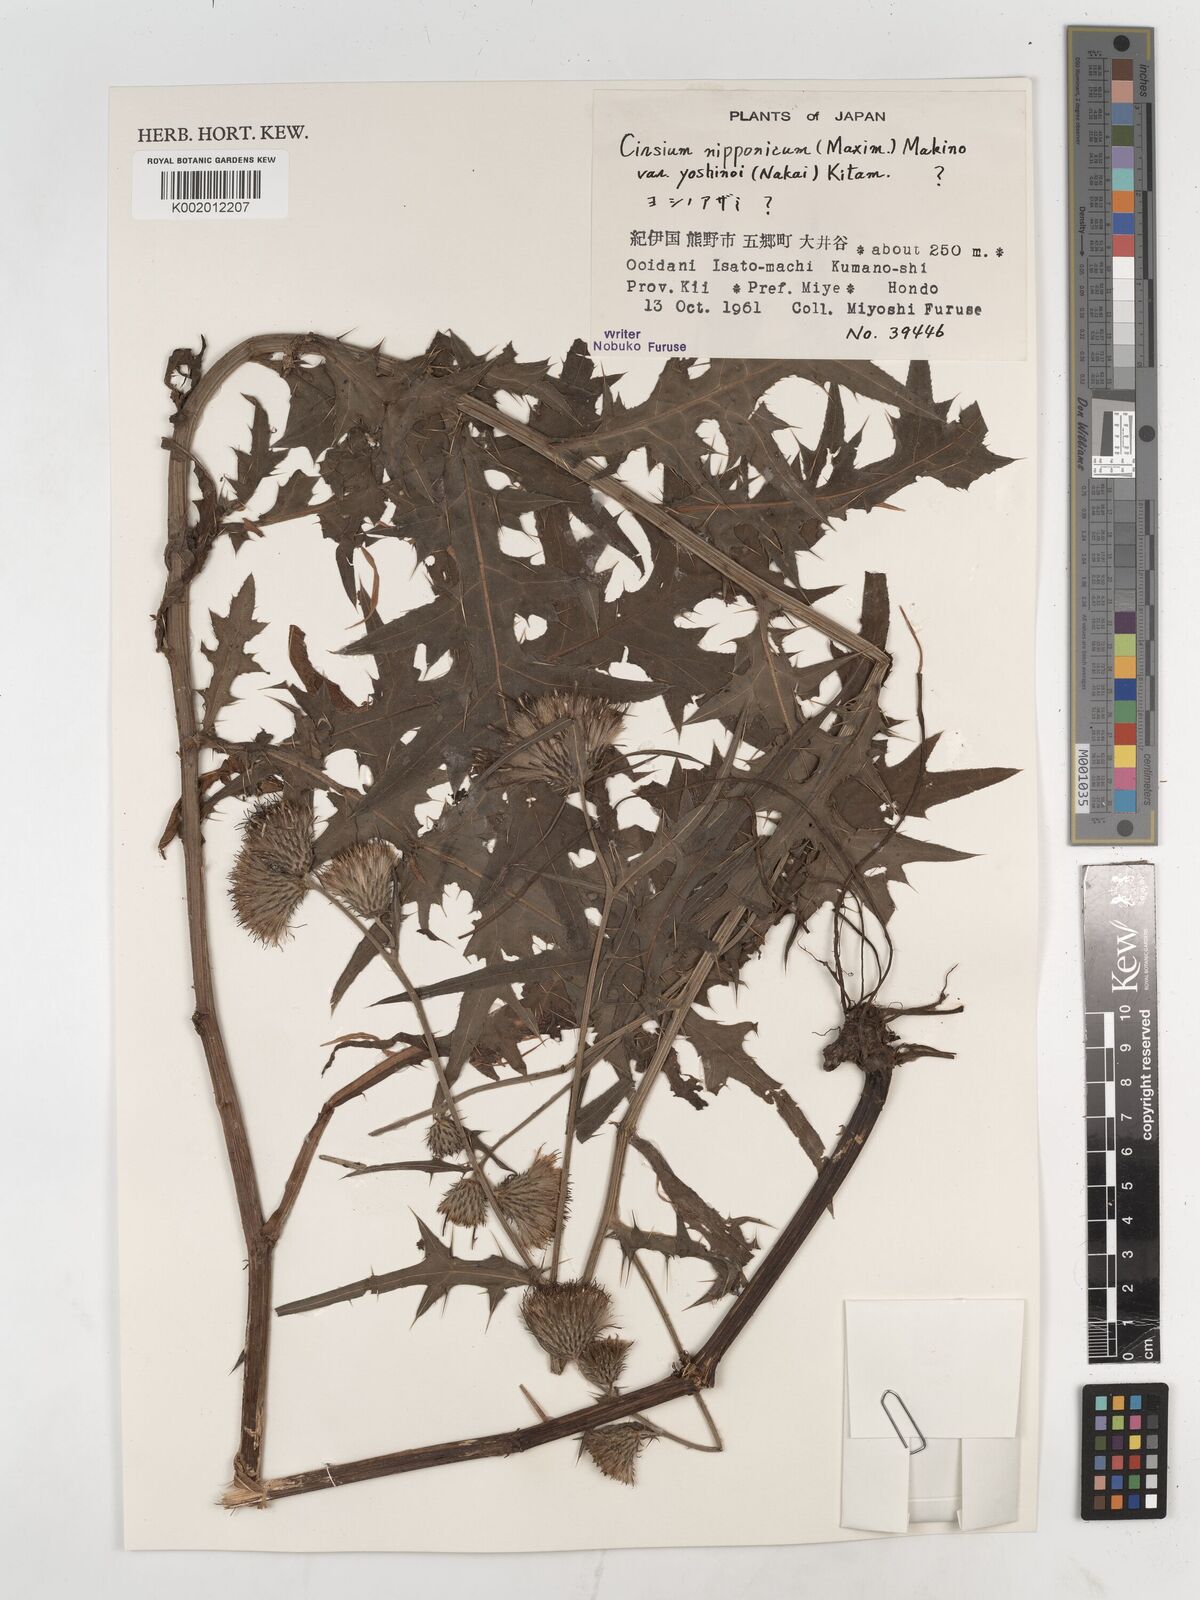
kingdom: Plantae
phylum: Tracheophyta
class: Magnoliopsida
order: Asterales
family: Asteraceae
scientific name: Asteraceae
